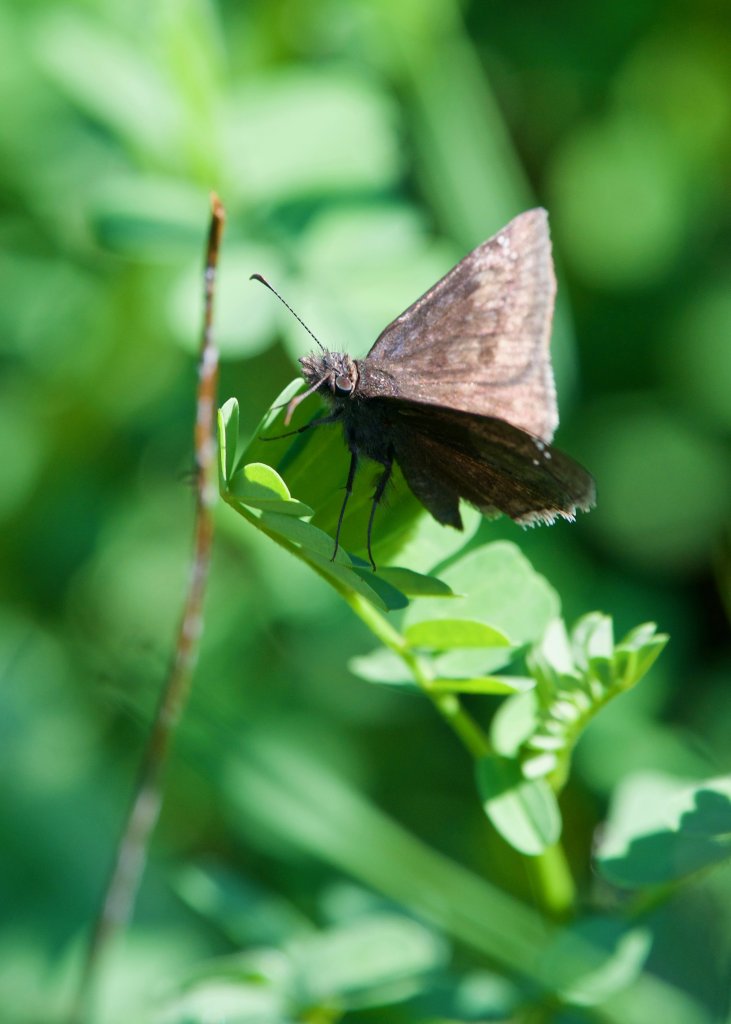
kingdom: Animalia
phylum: Arthropoda
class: Insecta
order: Lepidoptera
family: Hesperiidae
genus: Erynnis
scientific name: Erynnis funeralis
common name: Funereal Duskywing
